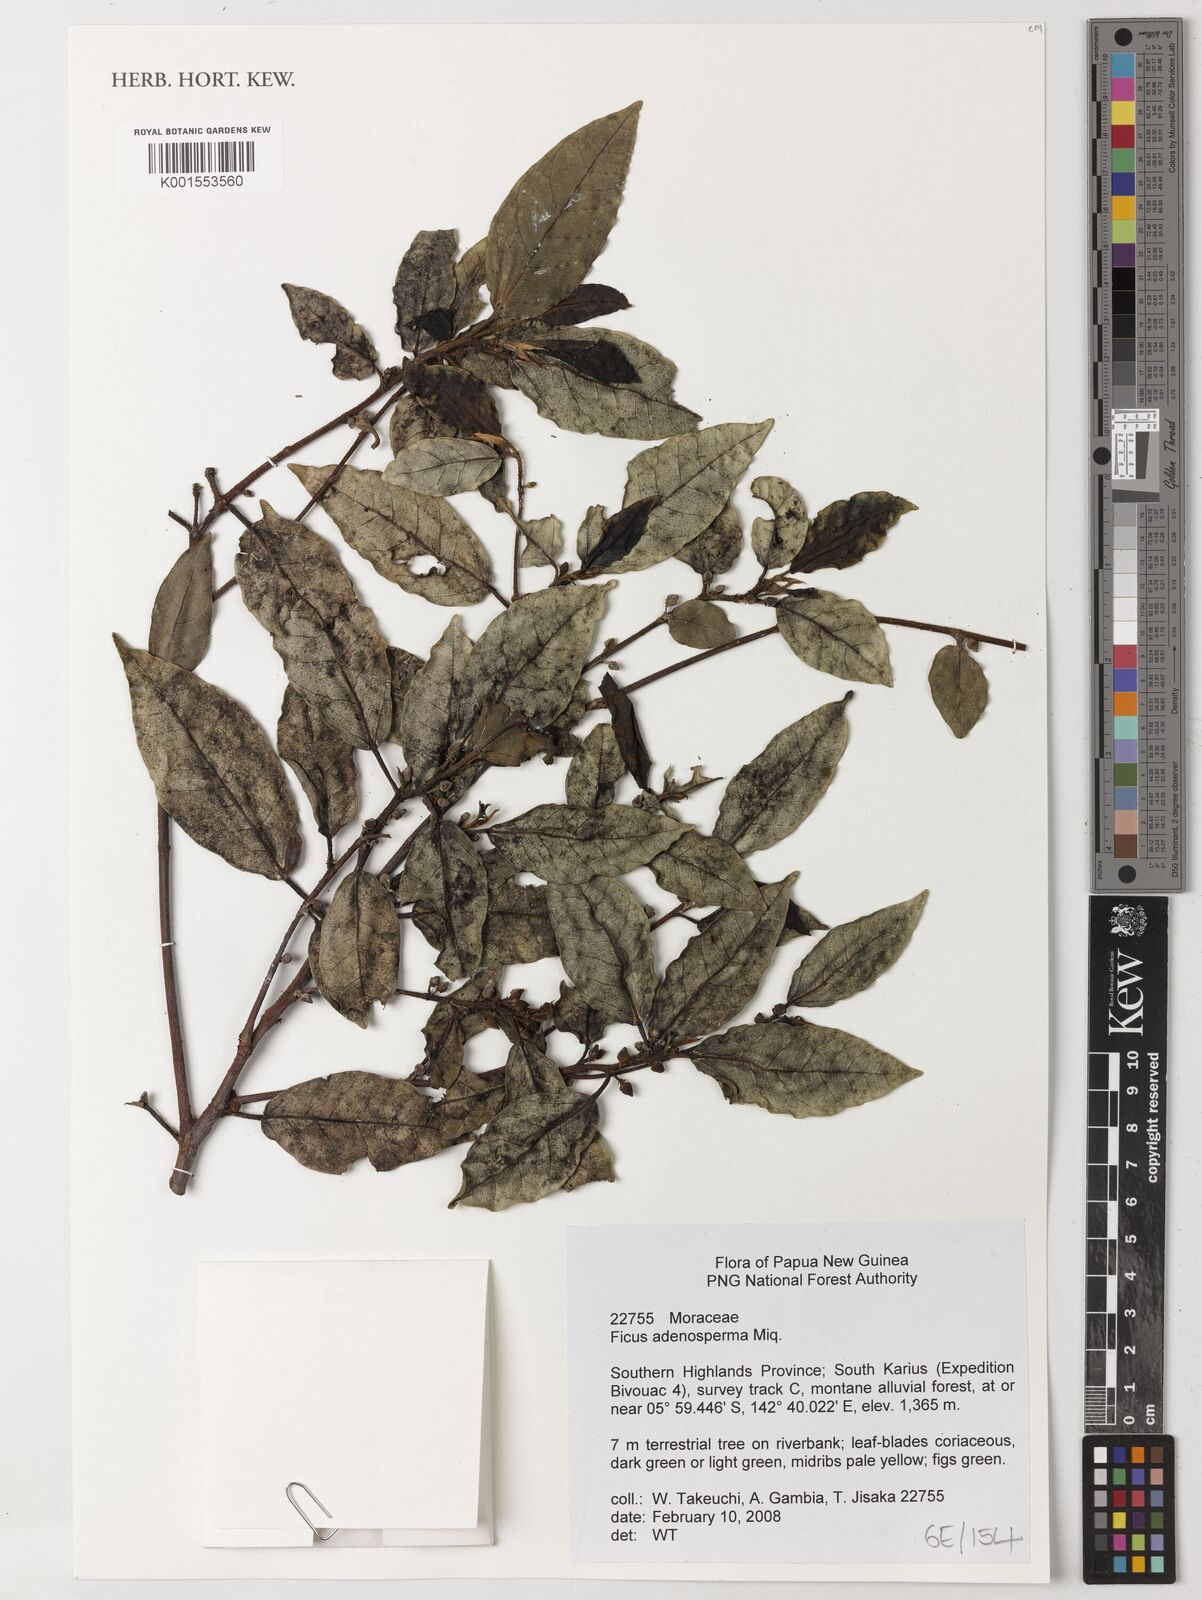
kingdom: Plantae
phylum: Tracheophyta
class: Magnoliopsida
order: Rosales
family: Moraceae
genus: Ficus
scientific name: Ficus adenosperma
